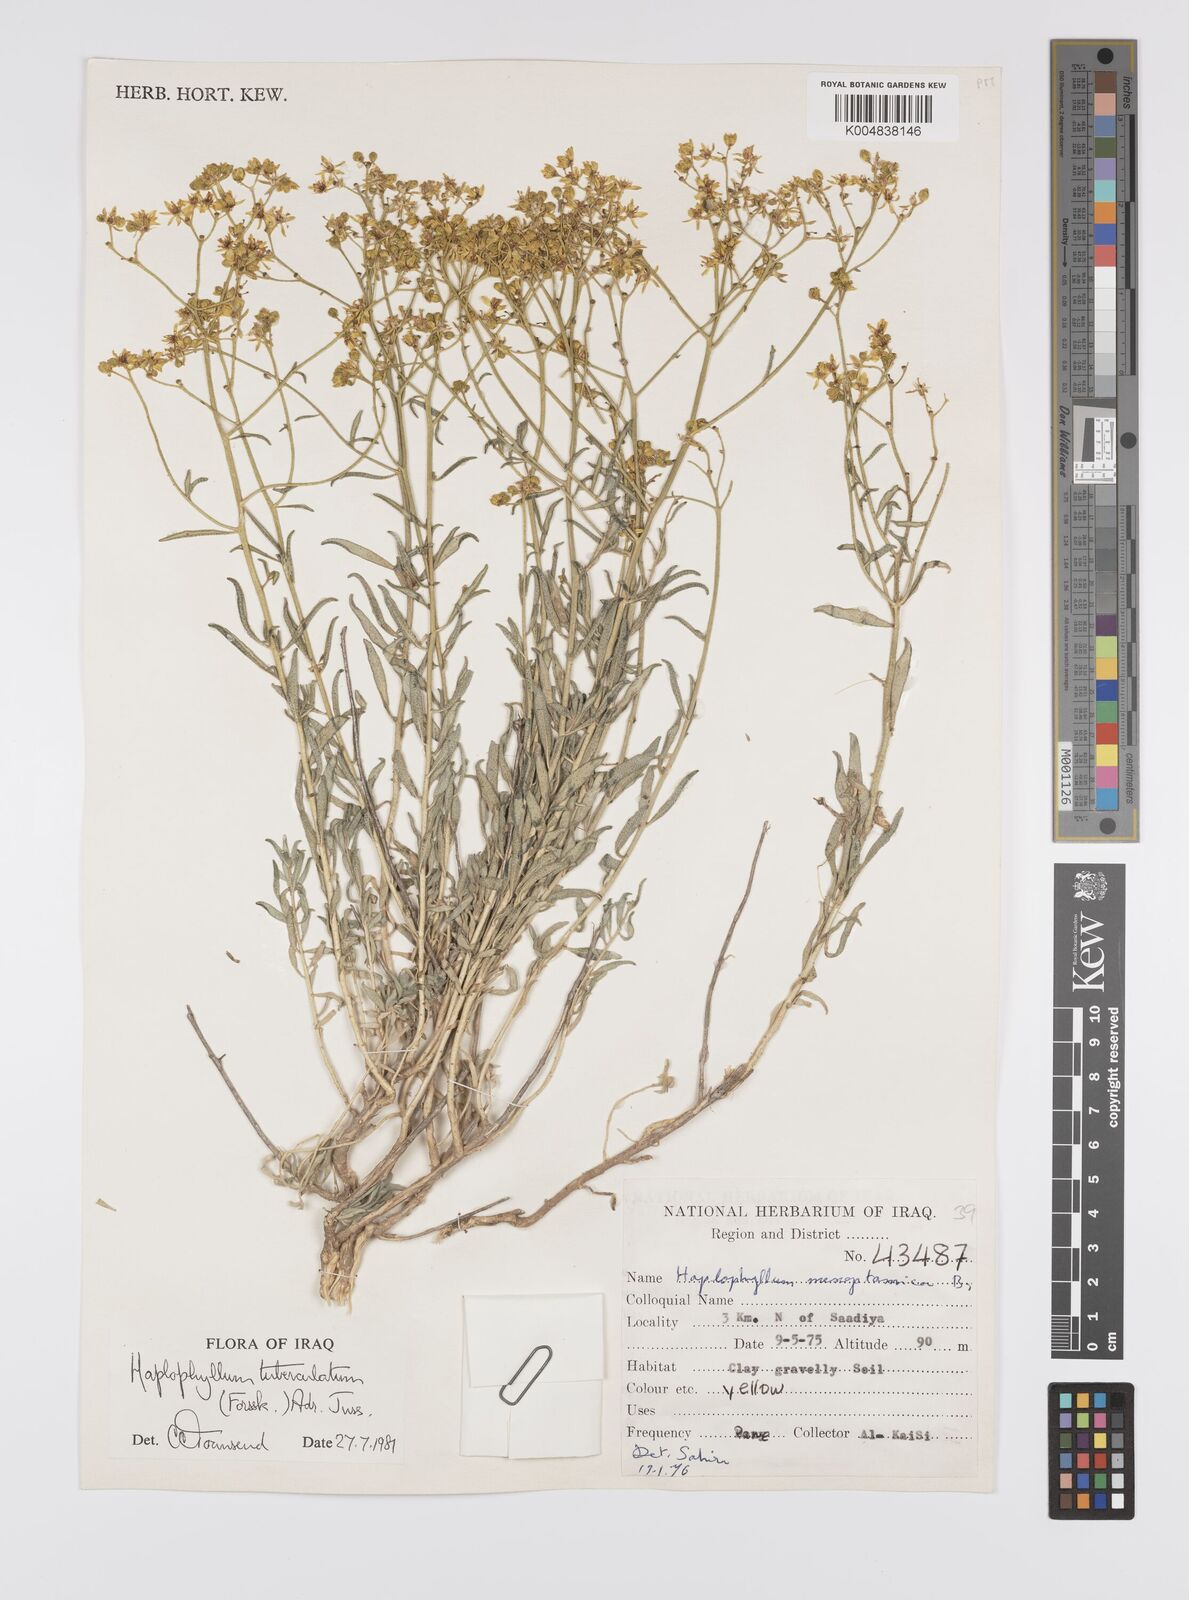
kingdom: Plantae
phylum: Tracheophyta
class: Magnoliopsida
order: Sapindales
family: Rutaceae
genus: Haplophyllum
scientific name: Haplophyllum tuberculatum
